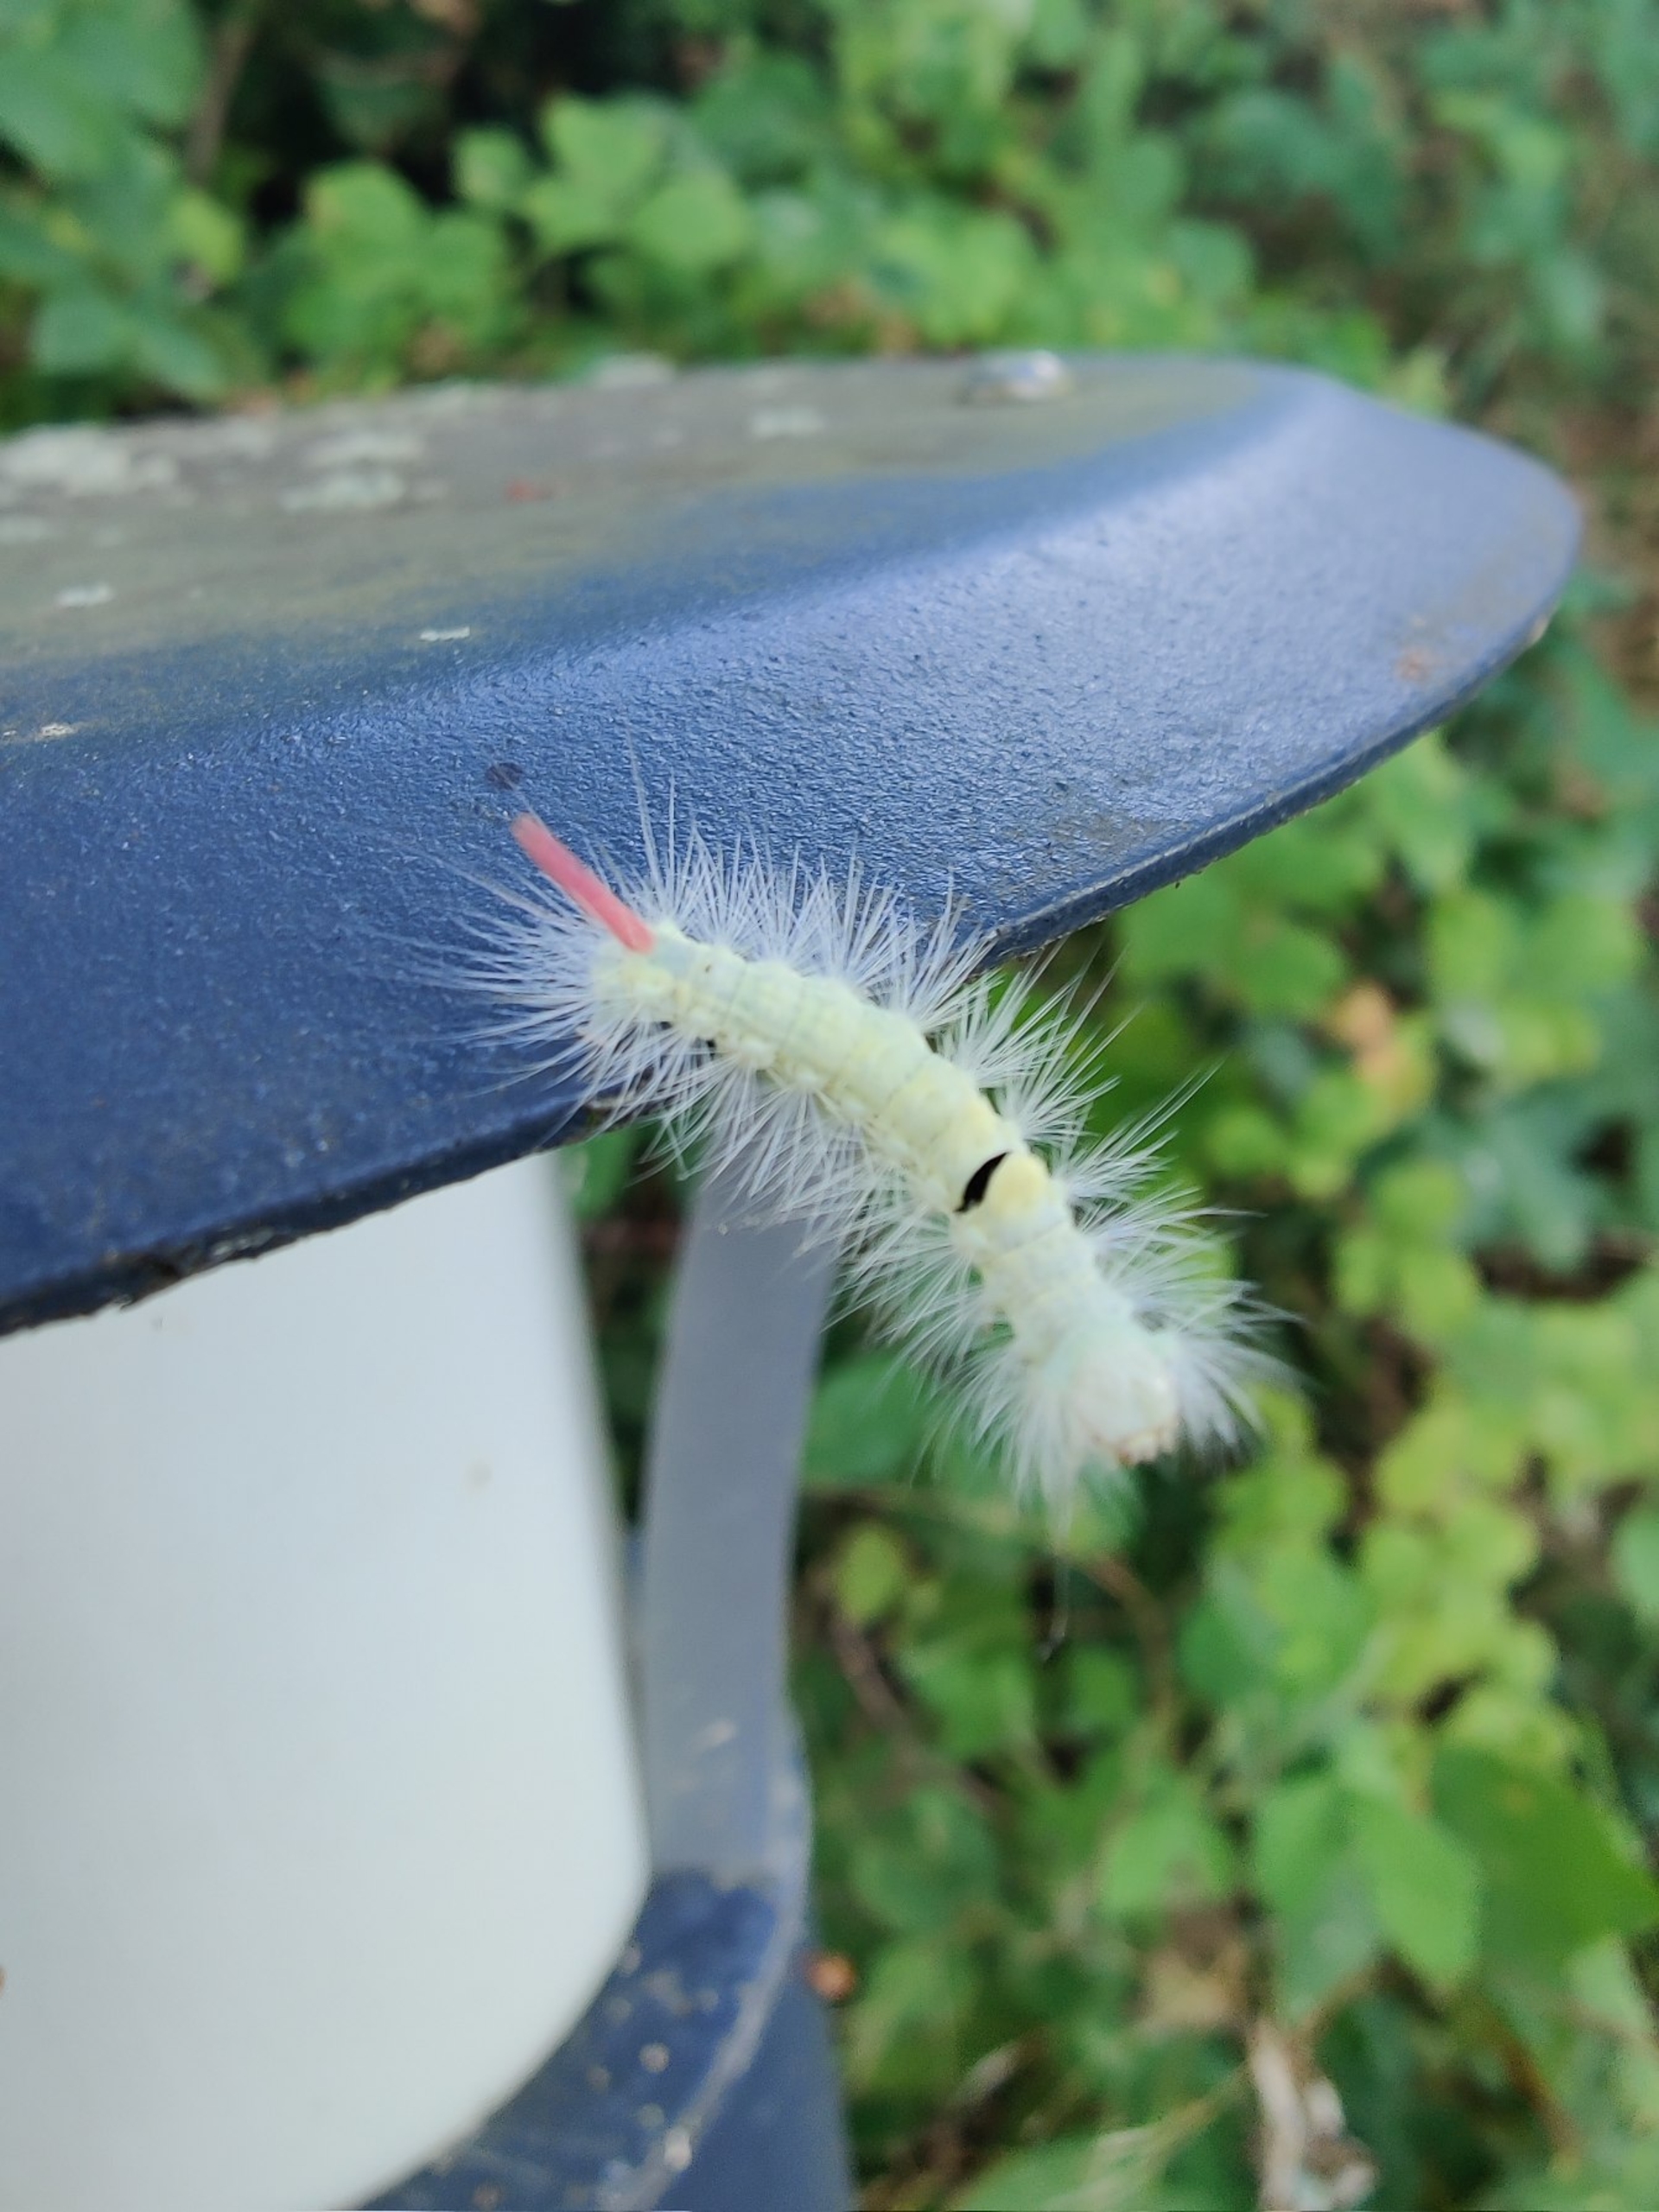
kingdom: Animalia
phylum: Arthropoda
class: Insecta
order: Lepidoptera
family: Erebidae
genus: Calliteara
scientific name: Calliteara pudibunda
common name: Bøgenonne
